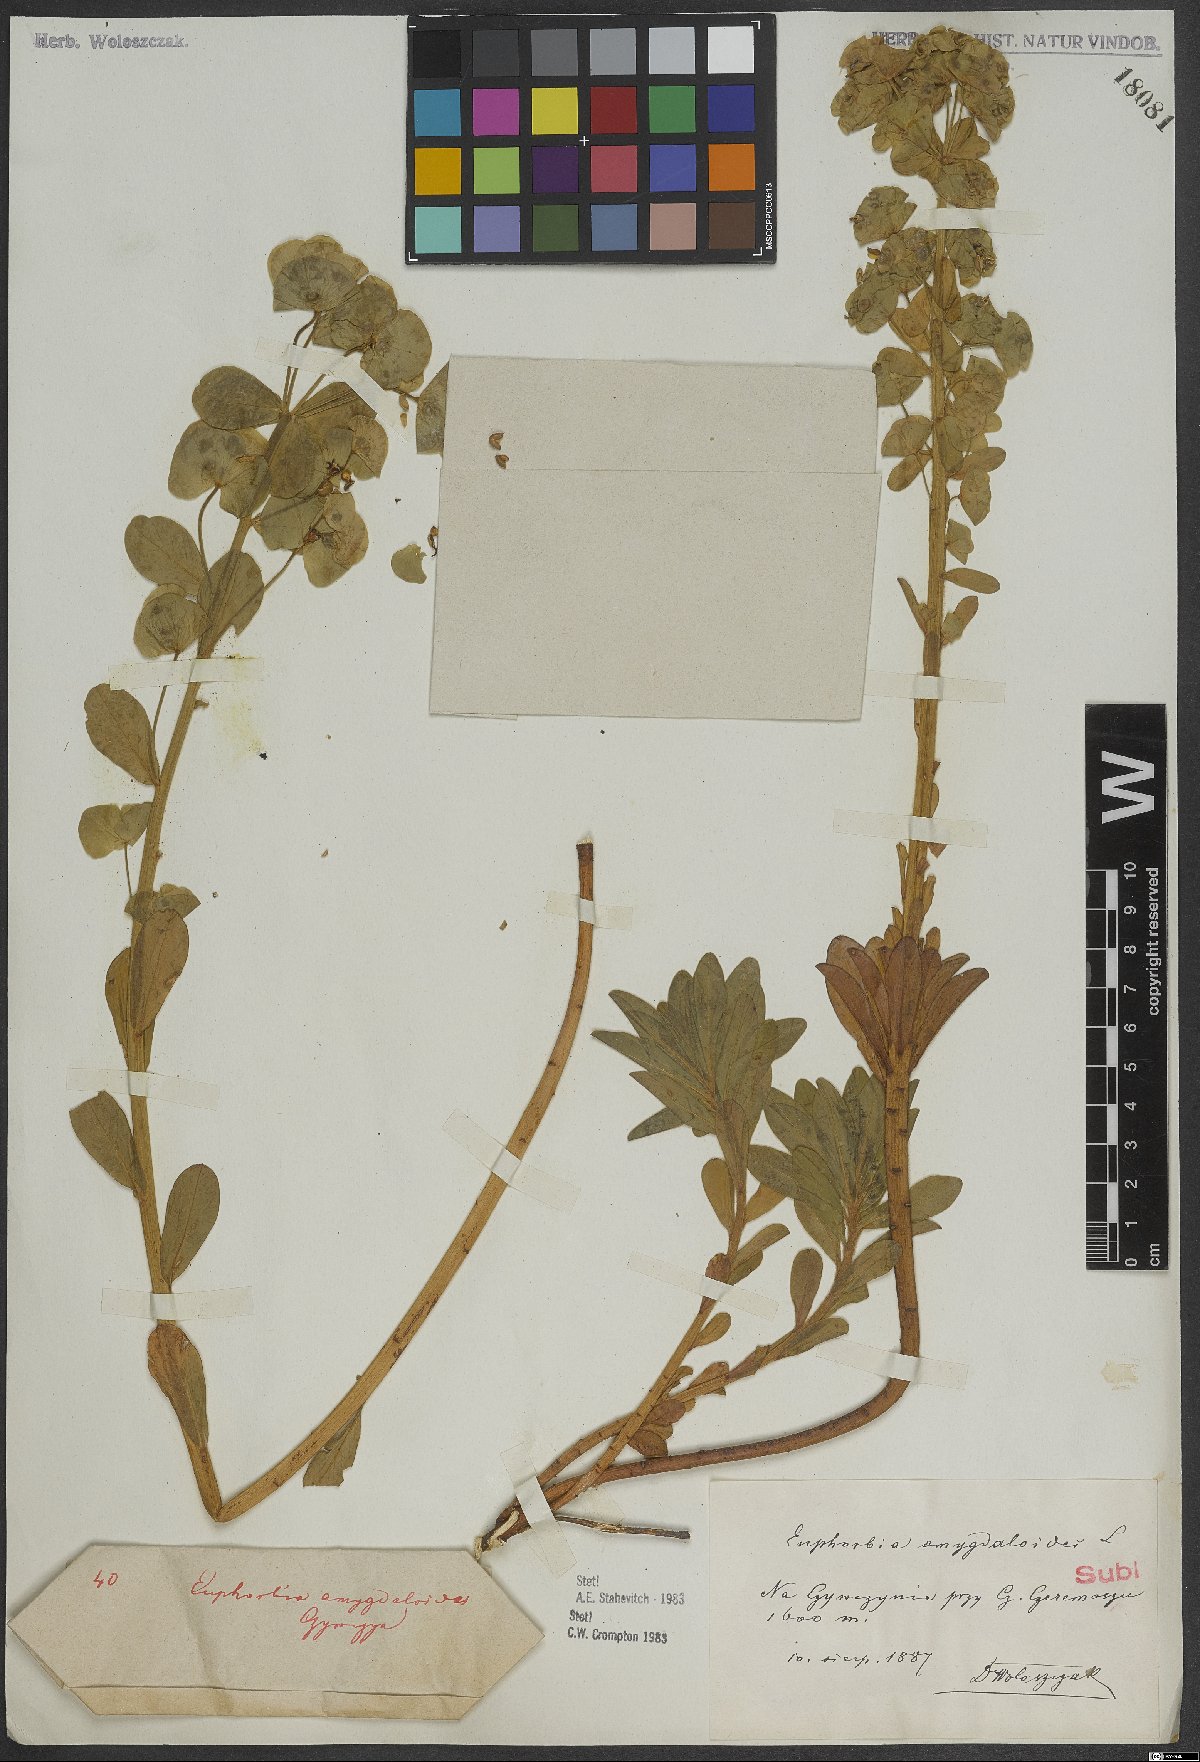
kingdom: Plantae
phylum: Tracheophyta
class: Magnoliopsida
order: Malpighiales
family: Euphorbiaceae
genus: Euphorbia
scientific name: Euphorbia amygdaloides
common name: Wood spurge
